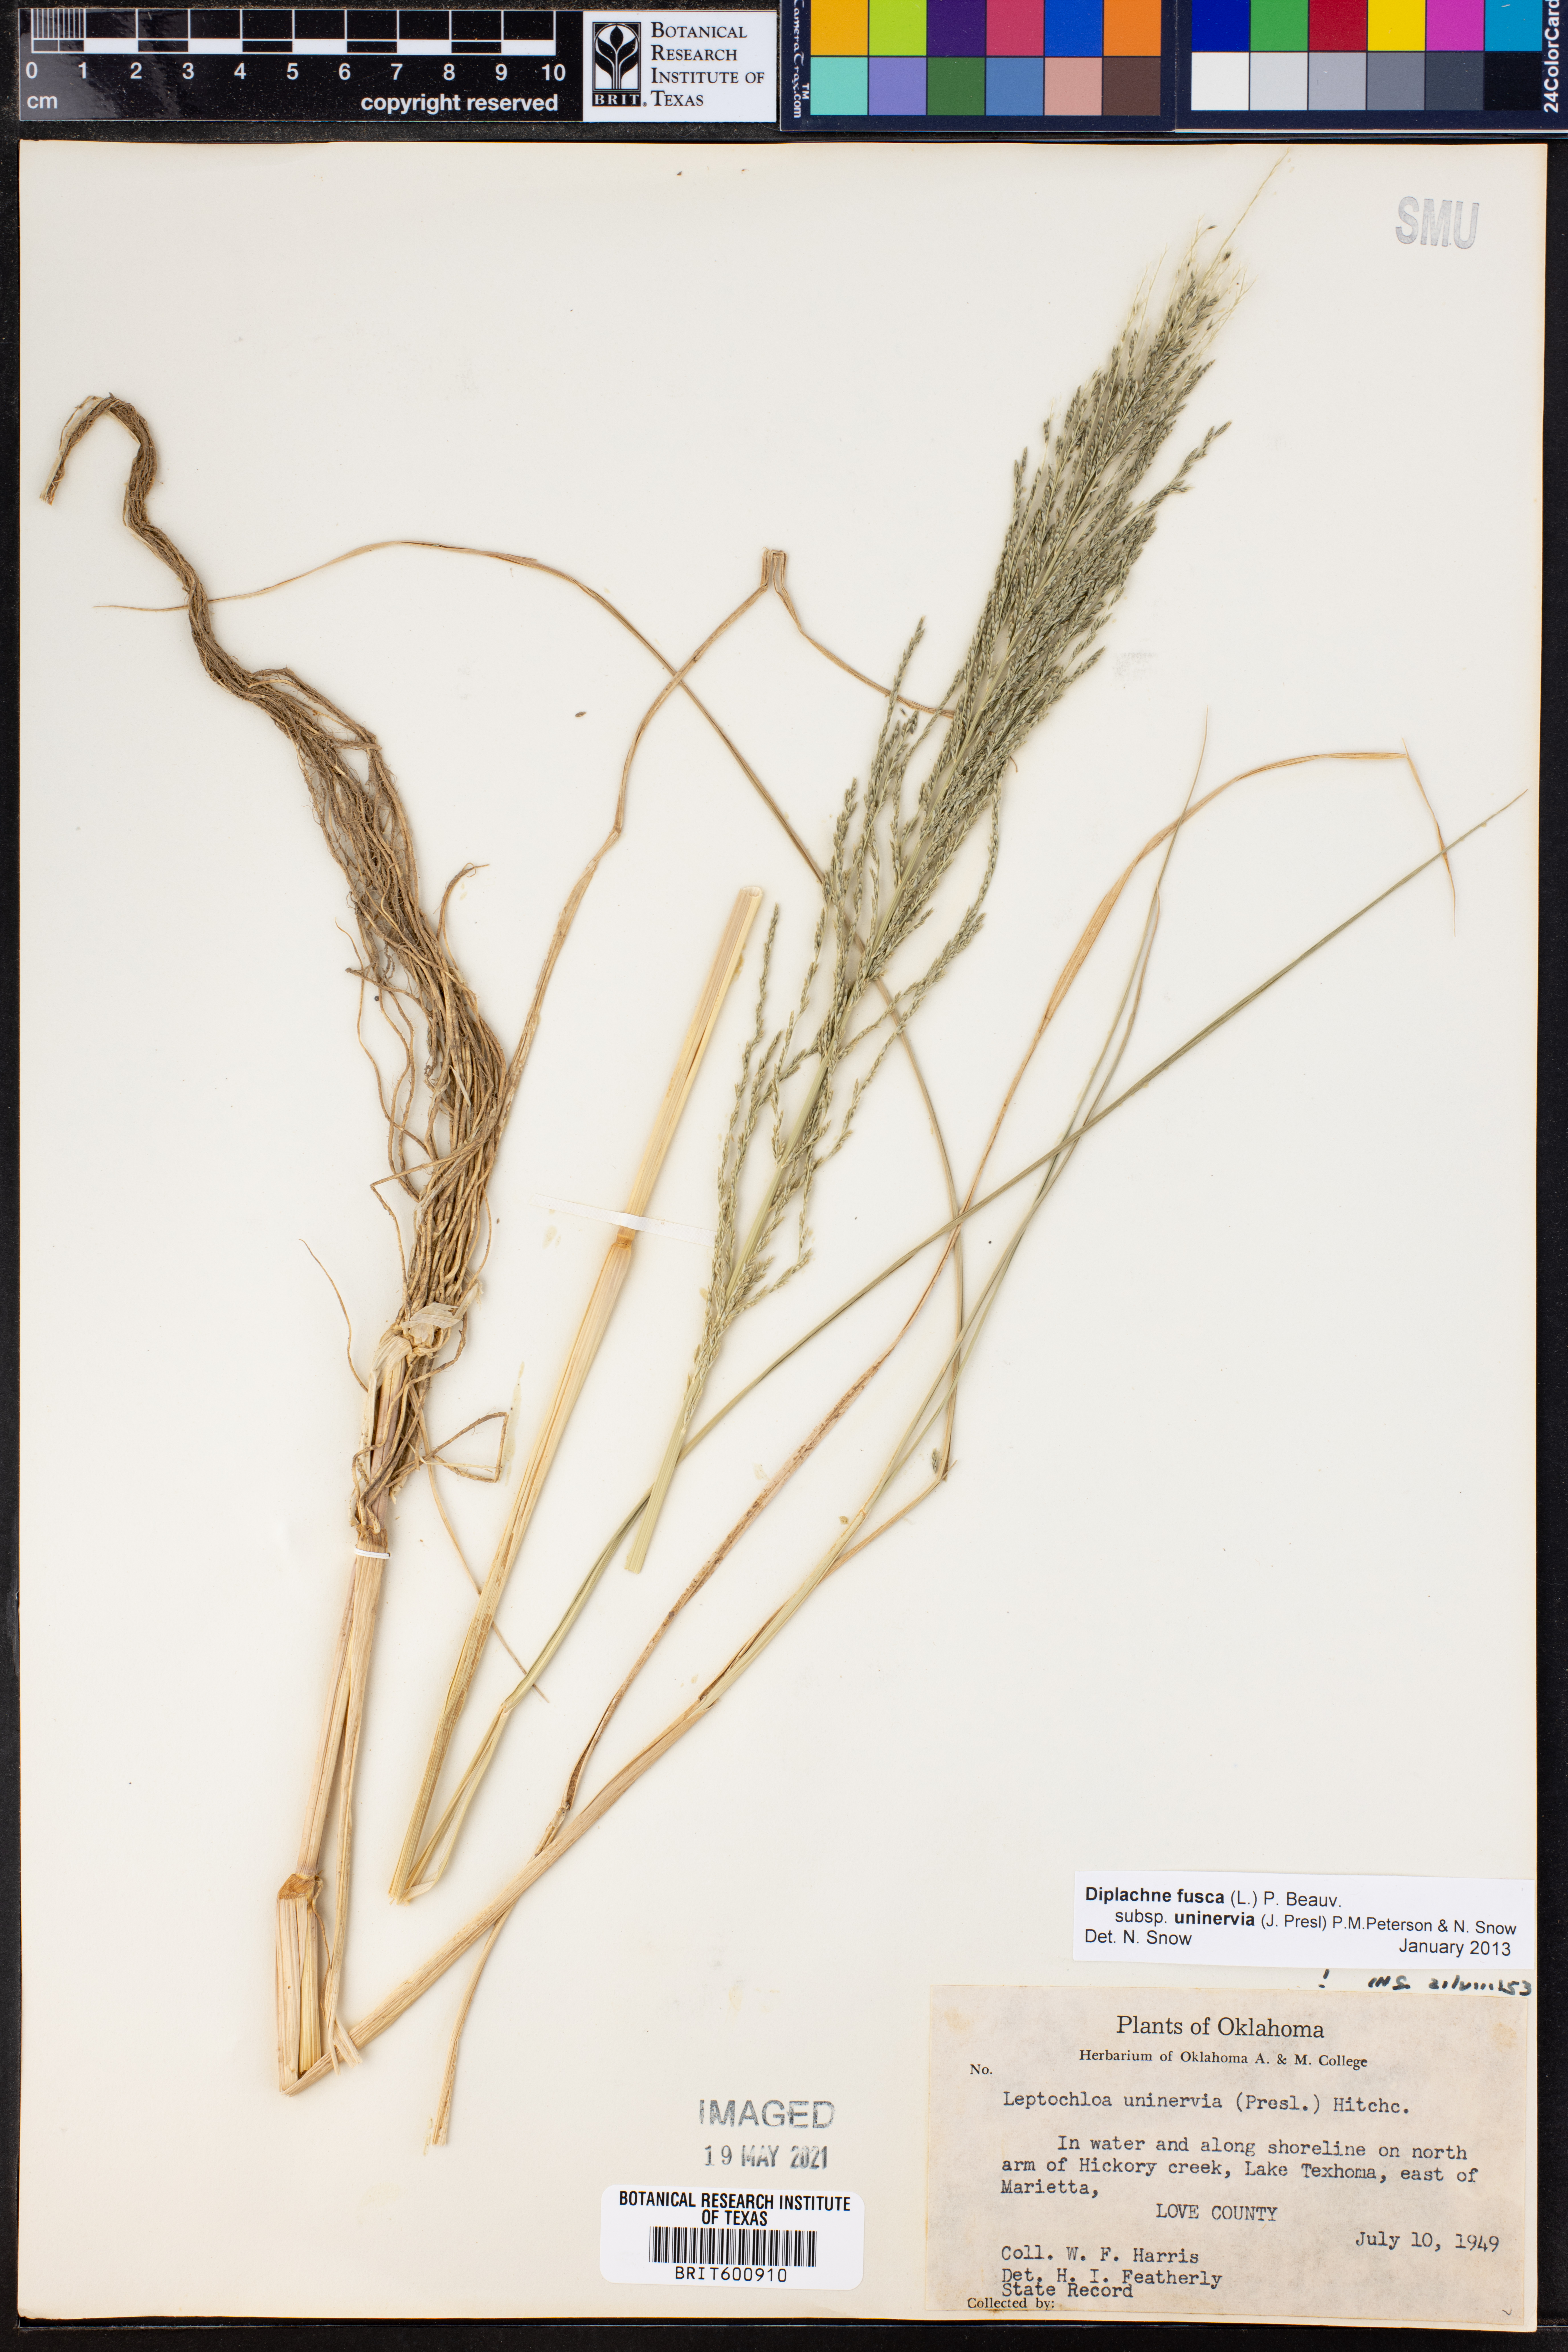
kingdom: Plantae
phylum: Tracheophyta
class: Liliopsida
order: Poales
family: Poaceae
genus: Diplachne
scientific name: Diplachne fusca
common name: Brown beetle grass
